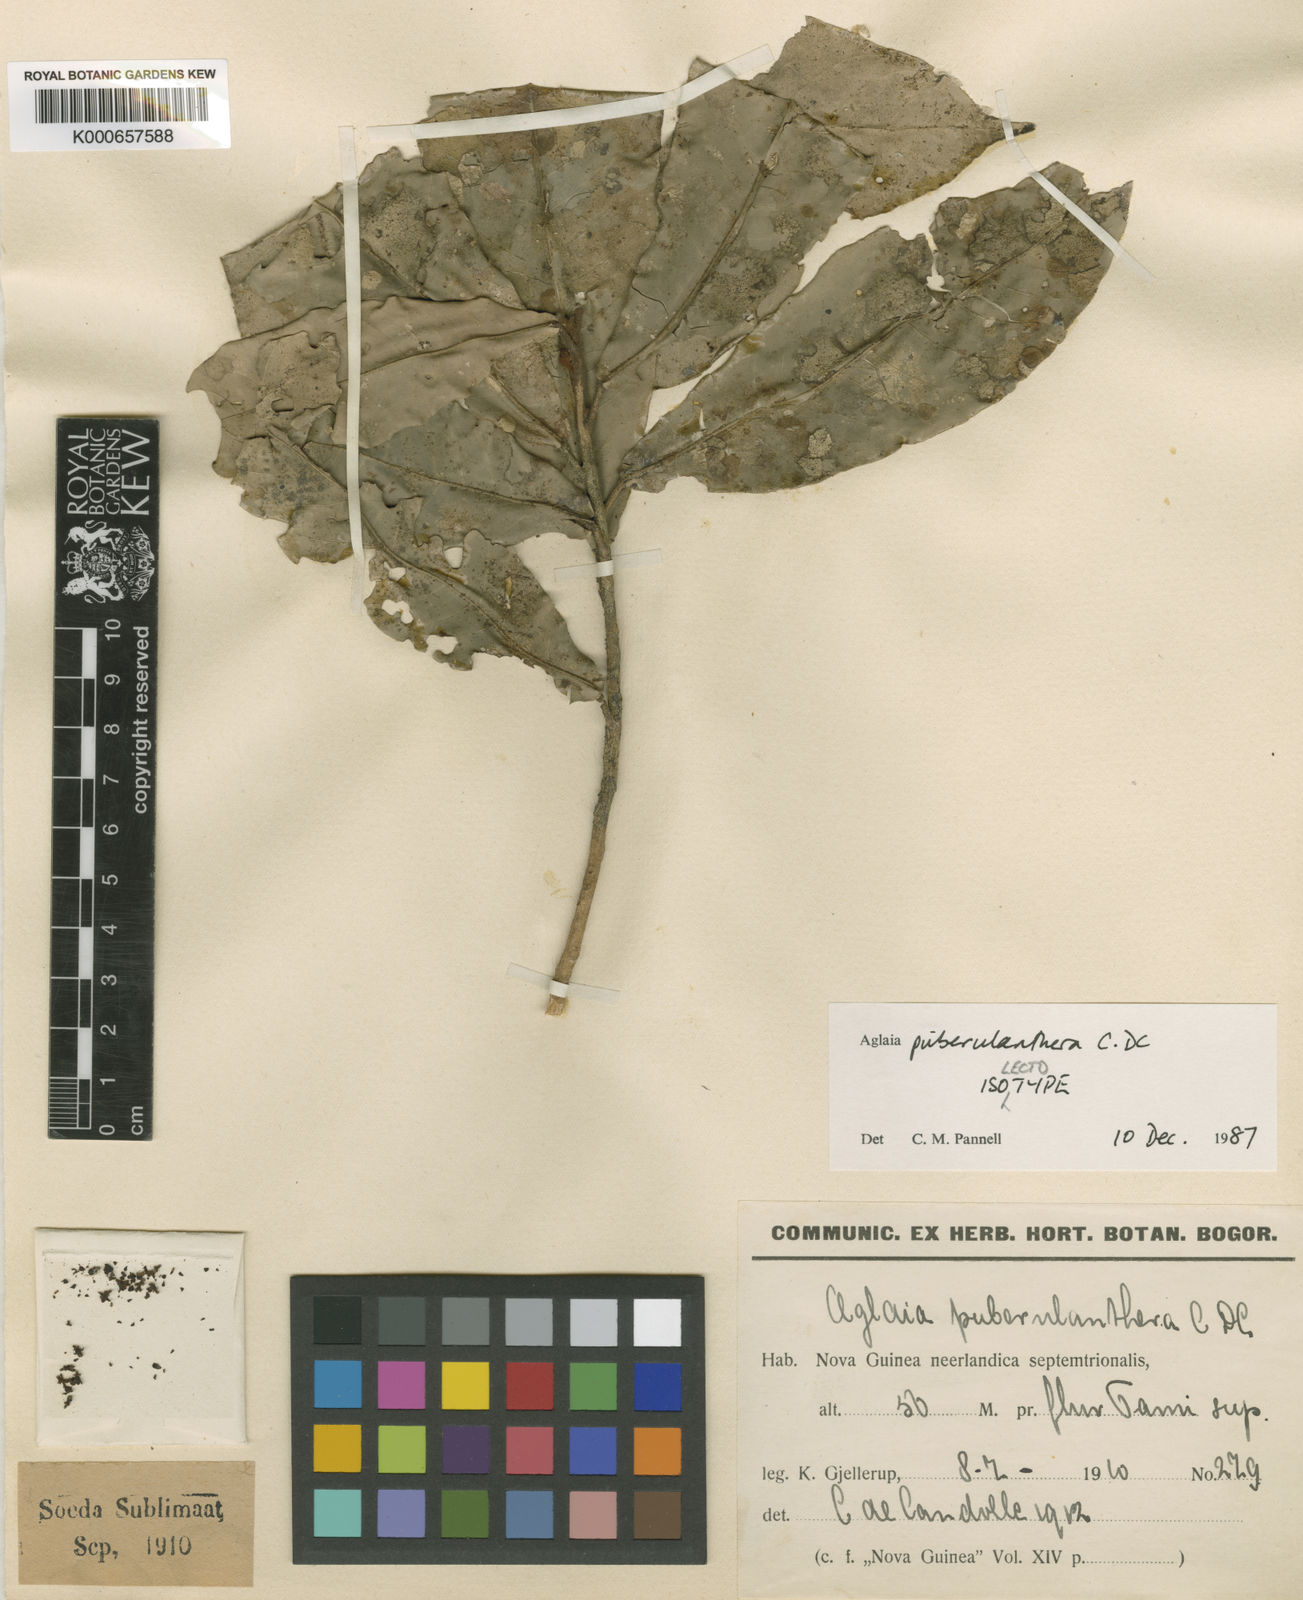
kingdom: Plantae
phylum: Tracheophyta
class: Magnoliopsida
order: Sapindales
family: Meliaceae
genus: Aglaia
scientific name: Aglaia puberulanthera
